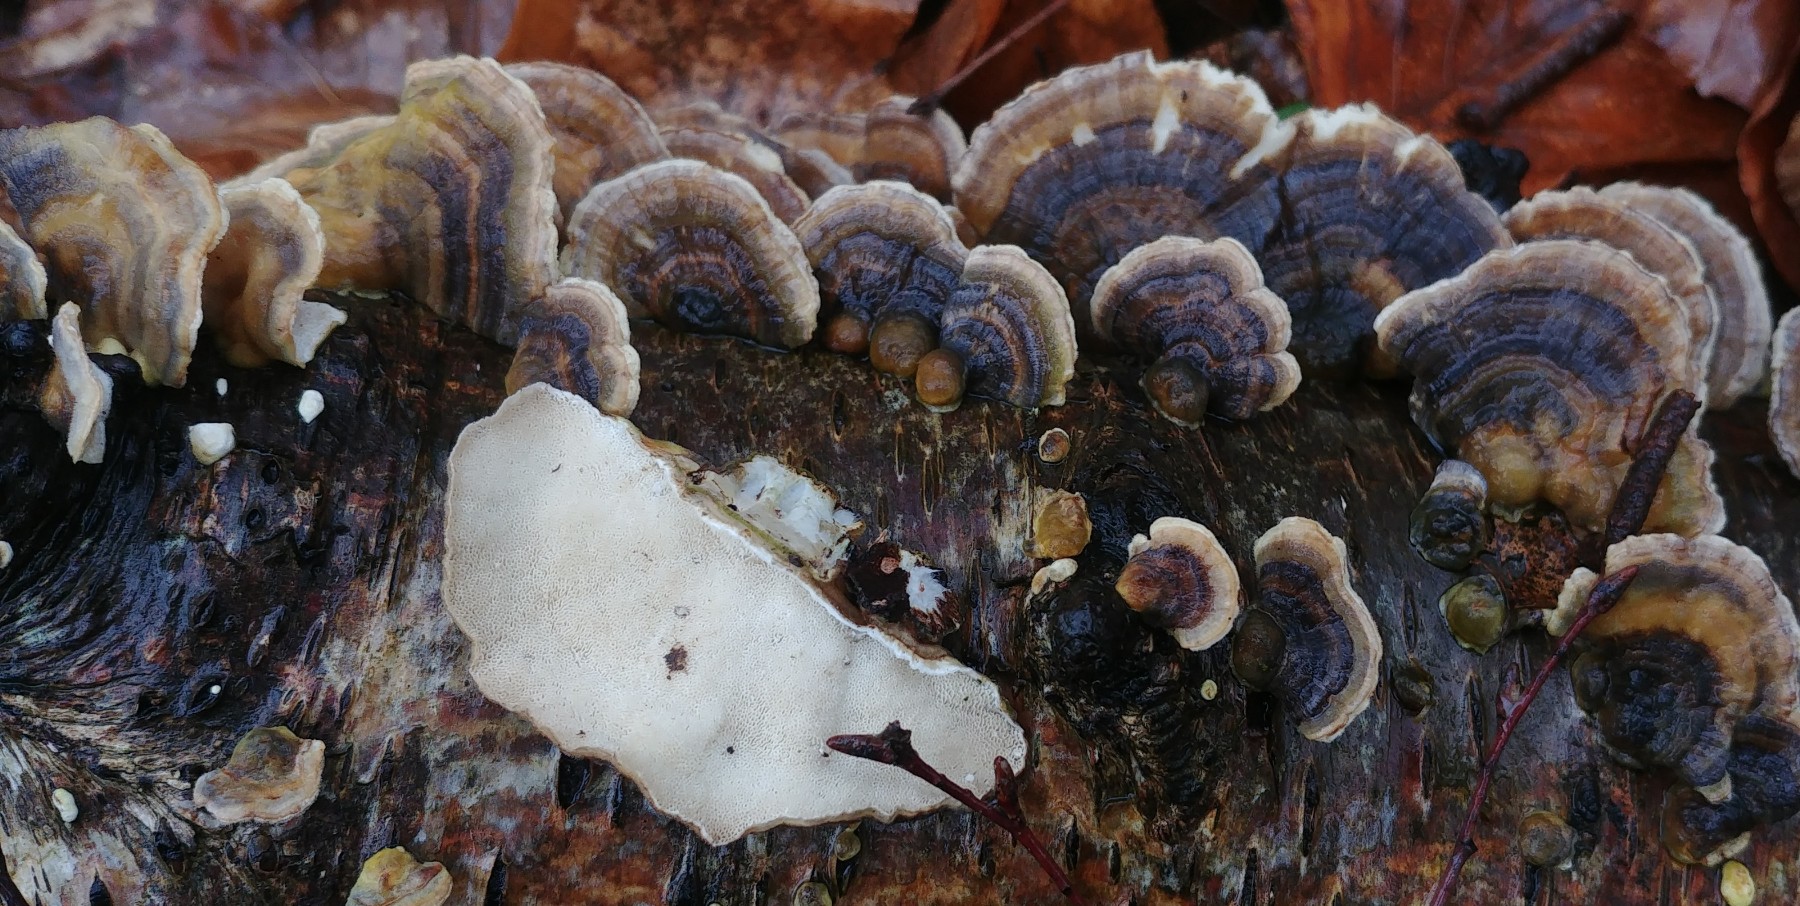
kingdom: Fungi
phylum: Basidiomycota
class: Agaricomycetes
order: Polyporales
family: Polyporaceae
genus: Trametes
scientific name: Trametes versicolor
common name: broget læderporesvamp
